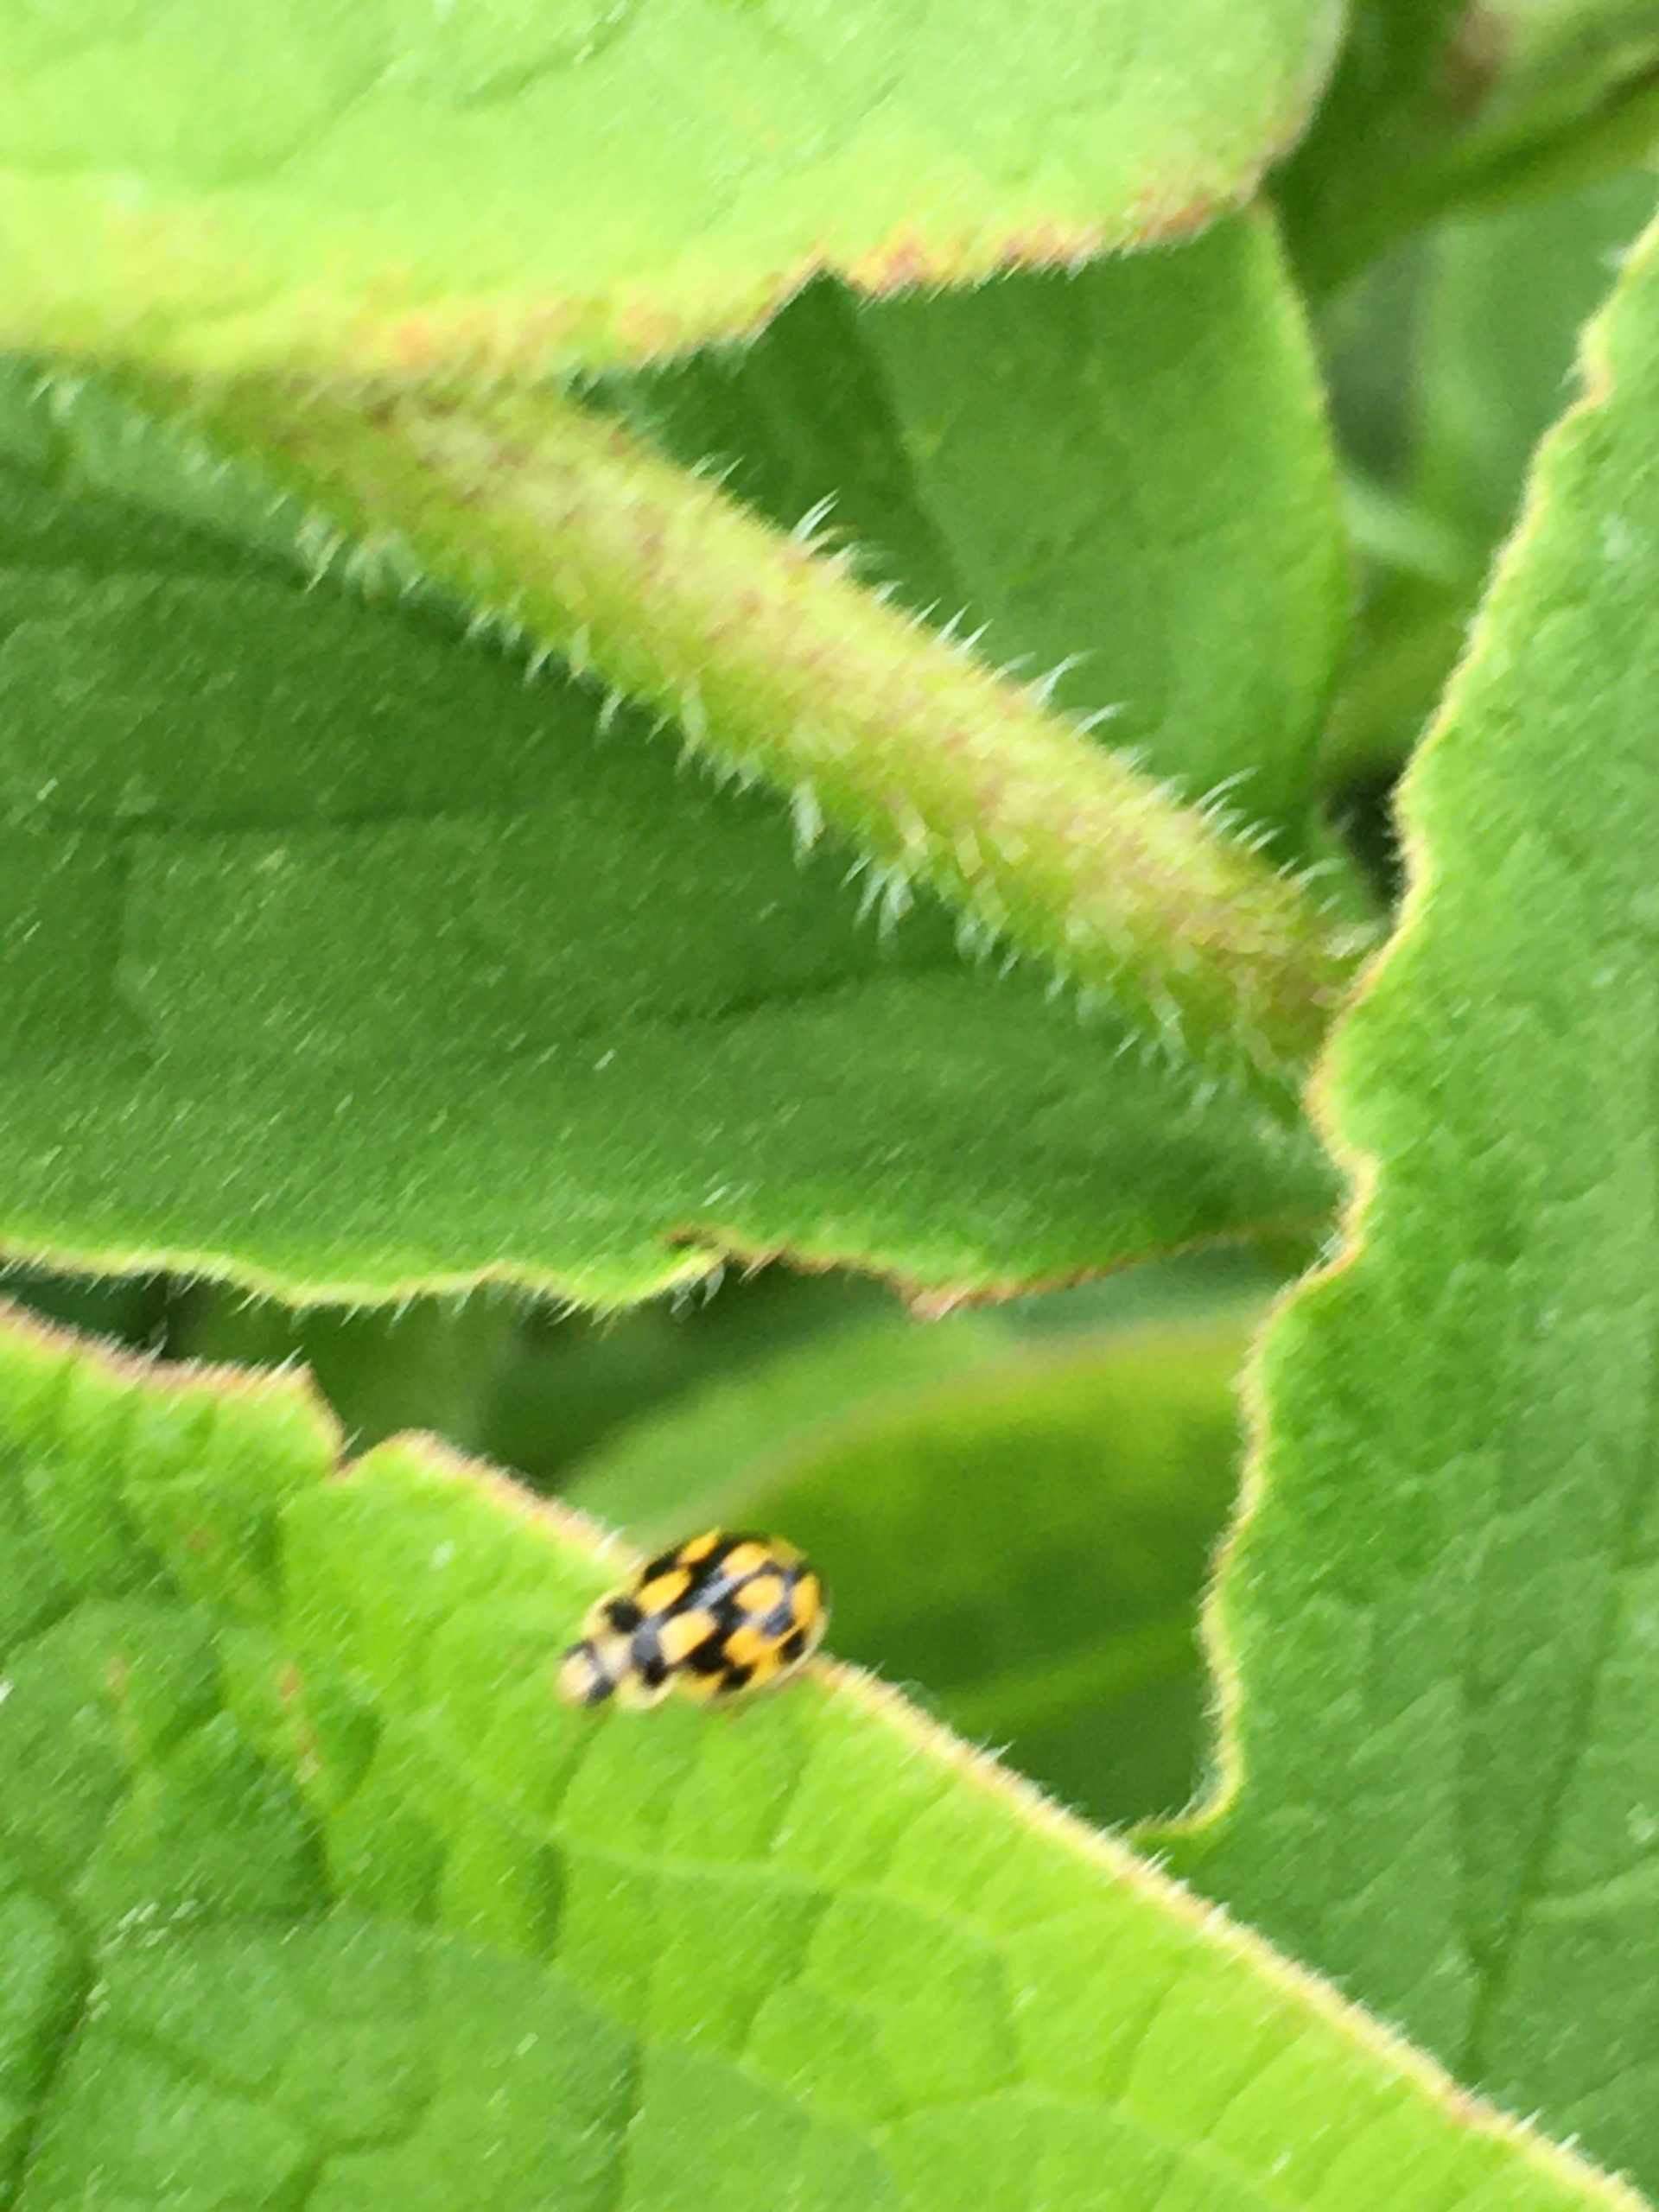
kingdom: Animalia
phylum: Arthropoda
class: Insecta
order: Coleoptera
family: Coccinellidae
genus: Propylaea
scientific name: Propylaea quatuordecimpunctata
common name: Skakbræt
